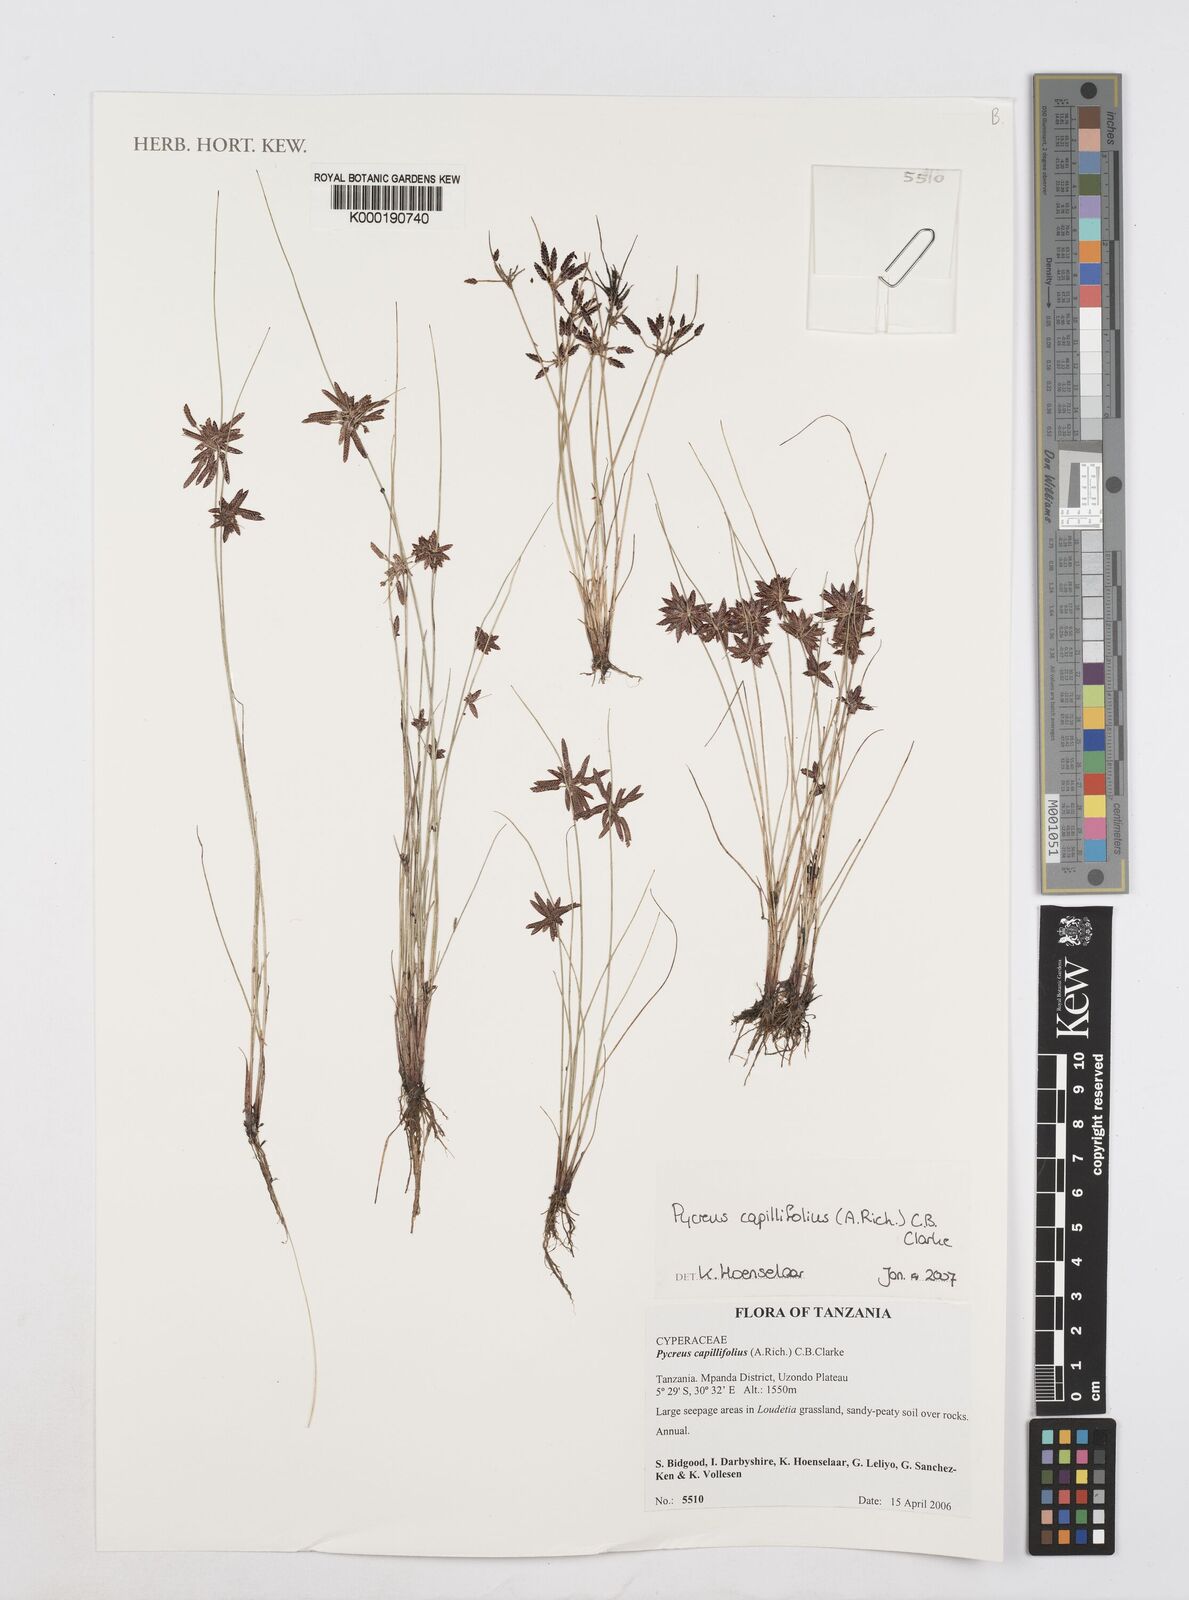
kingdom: Plantae
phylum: Tracheophyta
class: Liliopsida
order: Poales
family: Cyperaceae
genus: Cyperus
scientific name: Cyperus capillifolius
